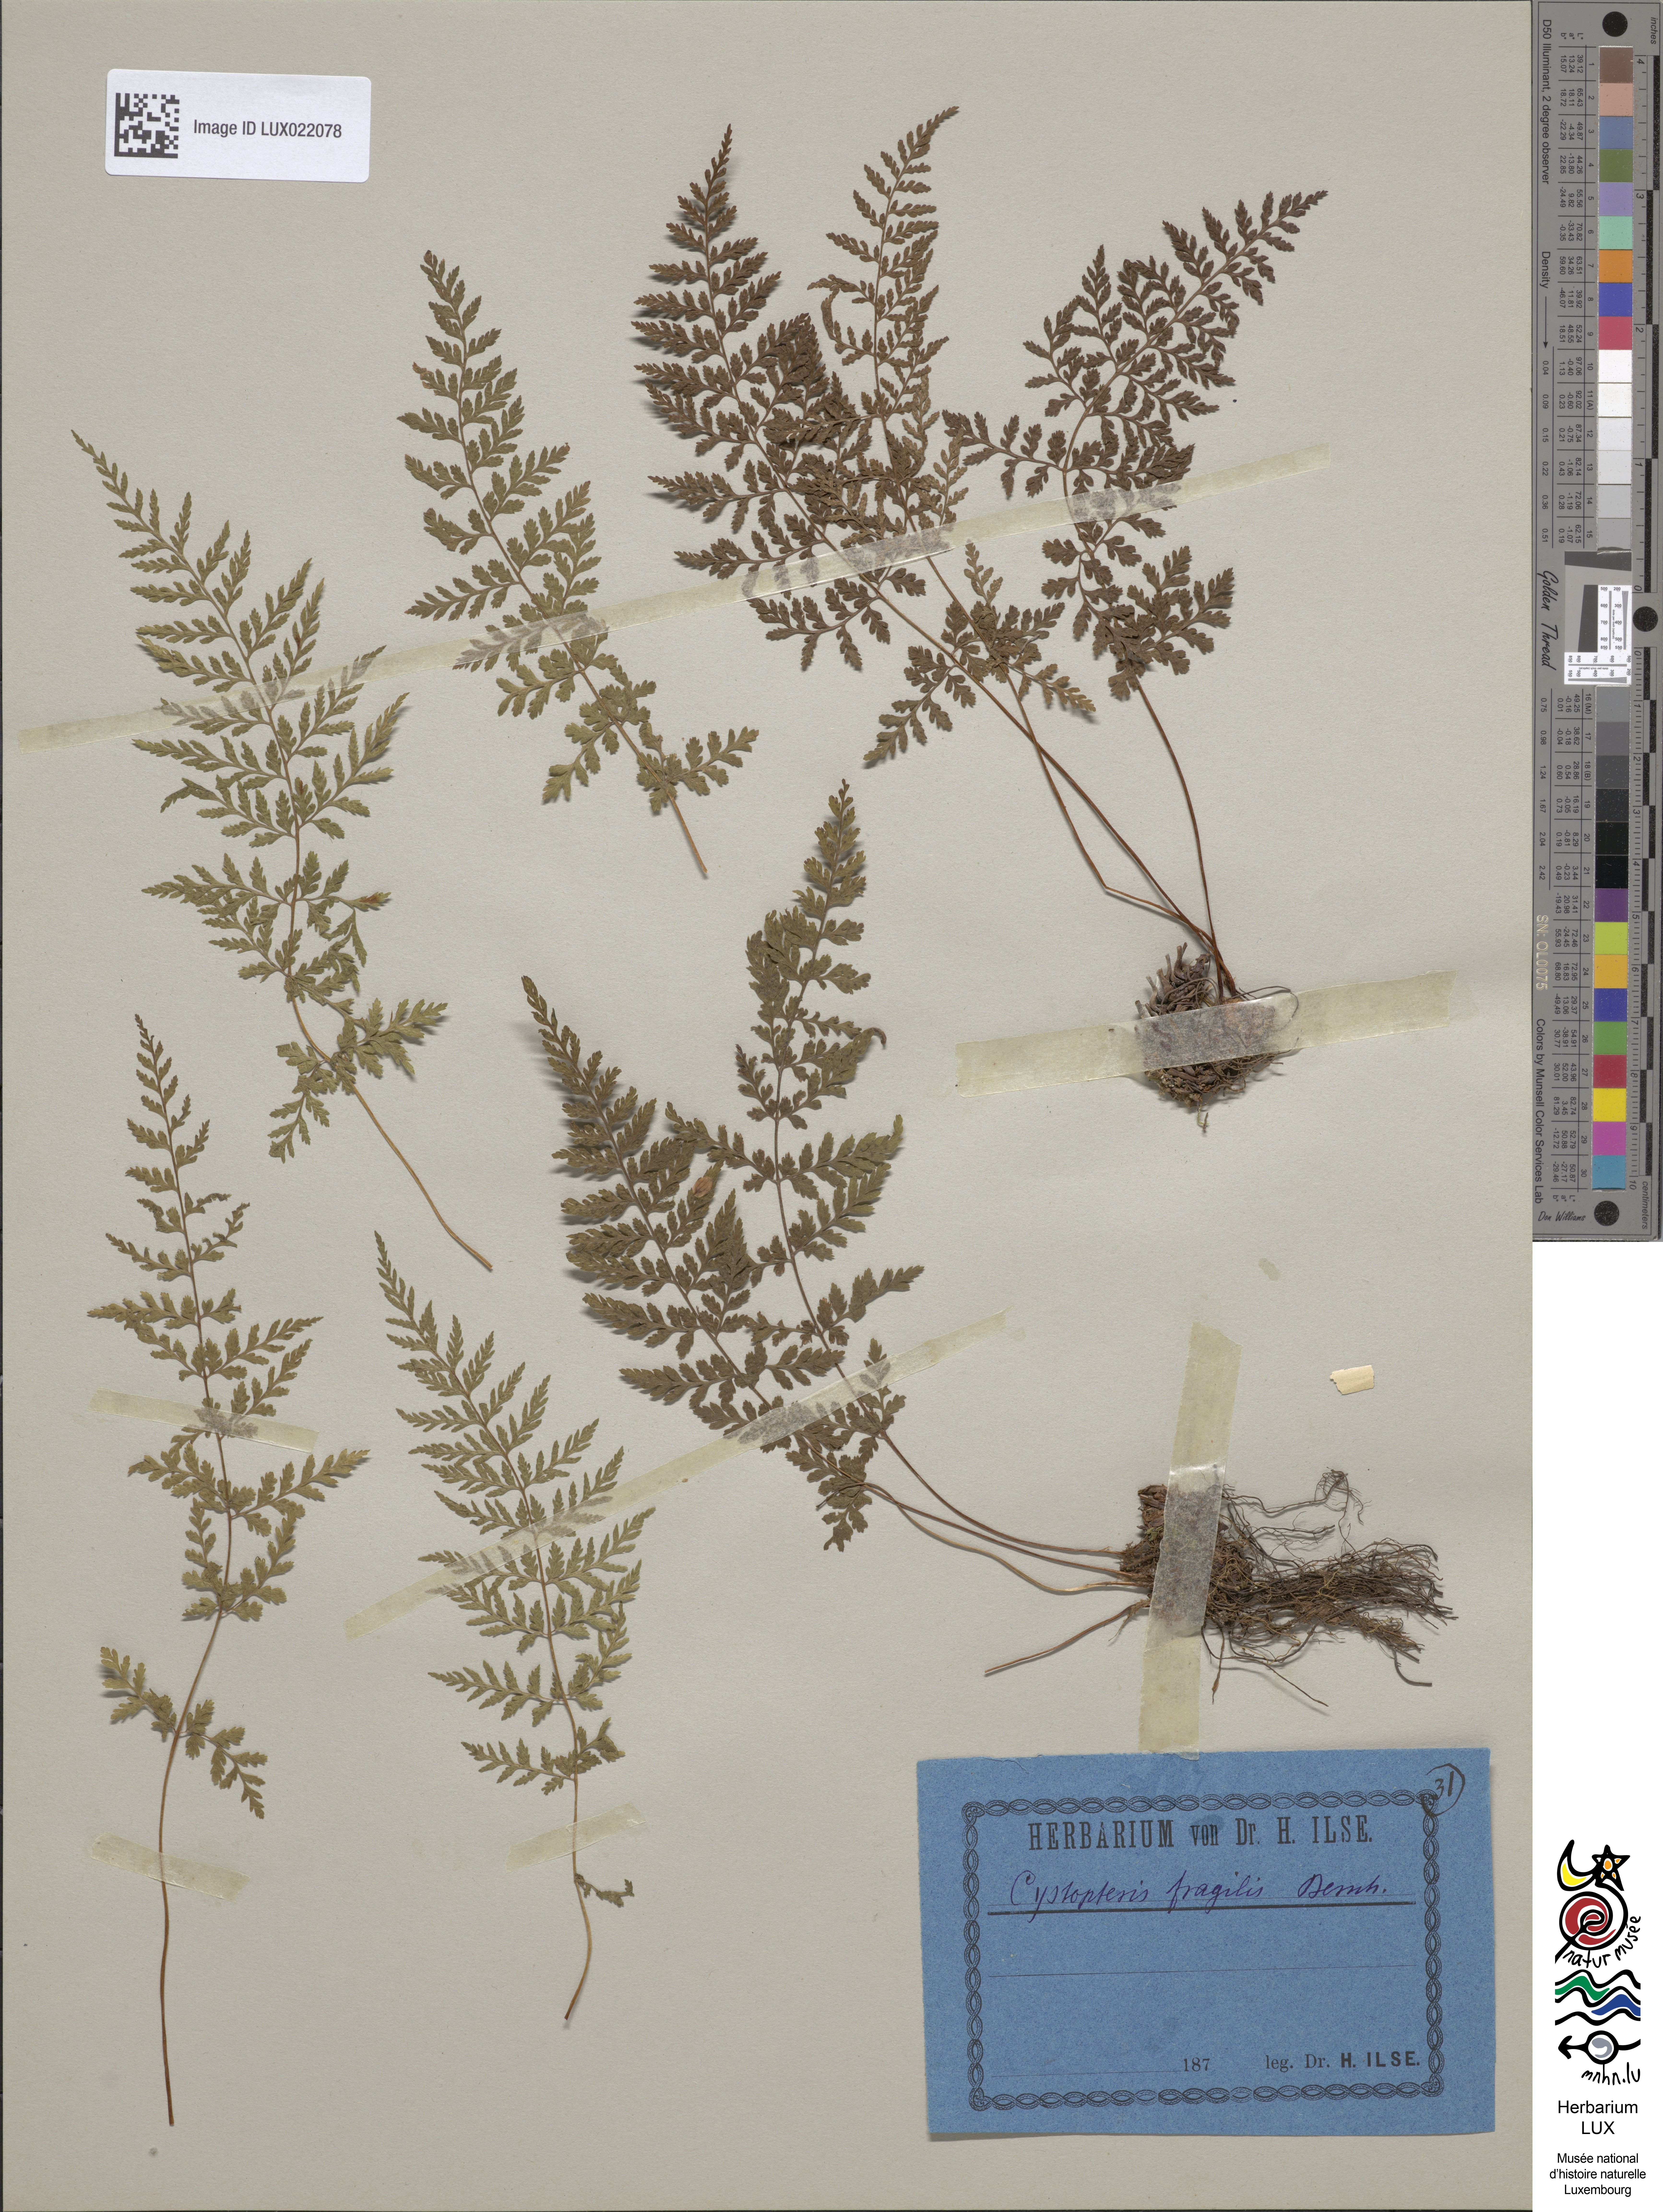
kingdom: Plantae
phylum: Tracheophyta
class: Polypodiopsida
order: Polypodiales
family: Cystopteridaceae
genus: Cystopteris
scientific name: Cystopteris fragilis
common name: Brittle bladder fern
